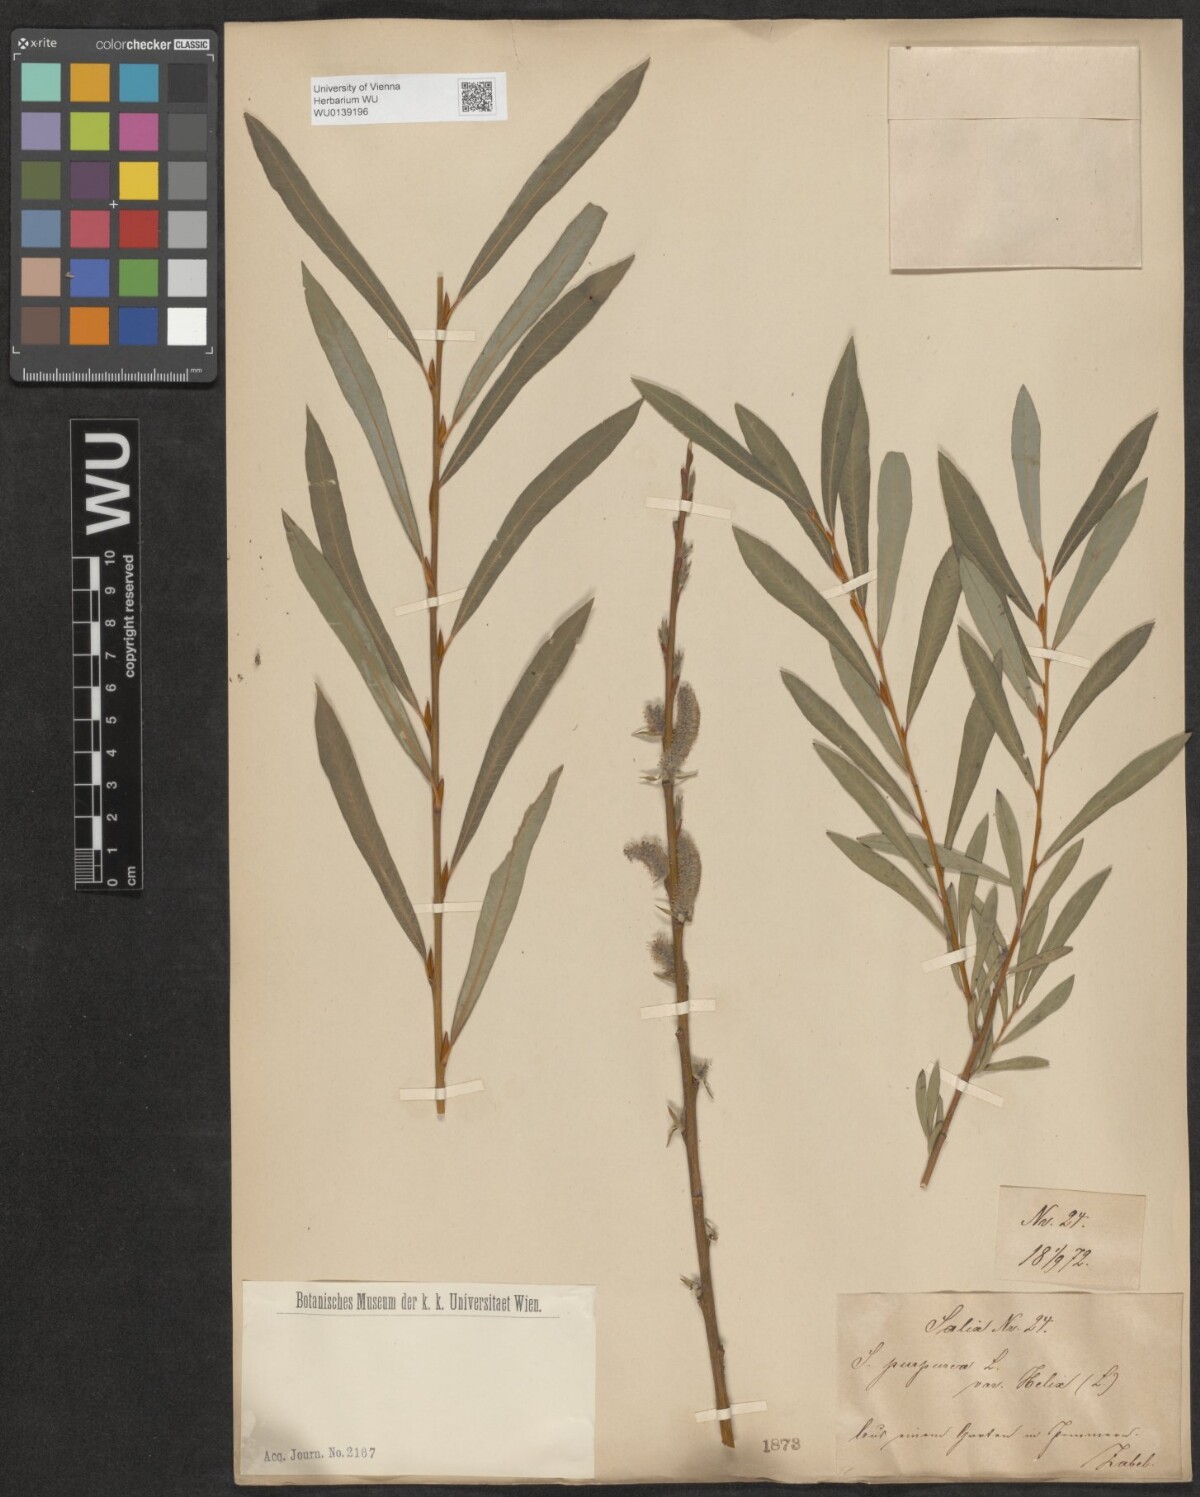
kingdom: Plantae
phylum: Tracheophyta
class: Magnoliopsida
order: Malpighiales
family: Salicaceae
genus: Salix
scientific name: Salix purpurea
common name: Purple willow
